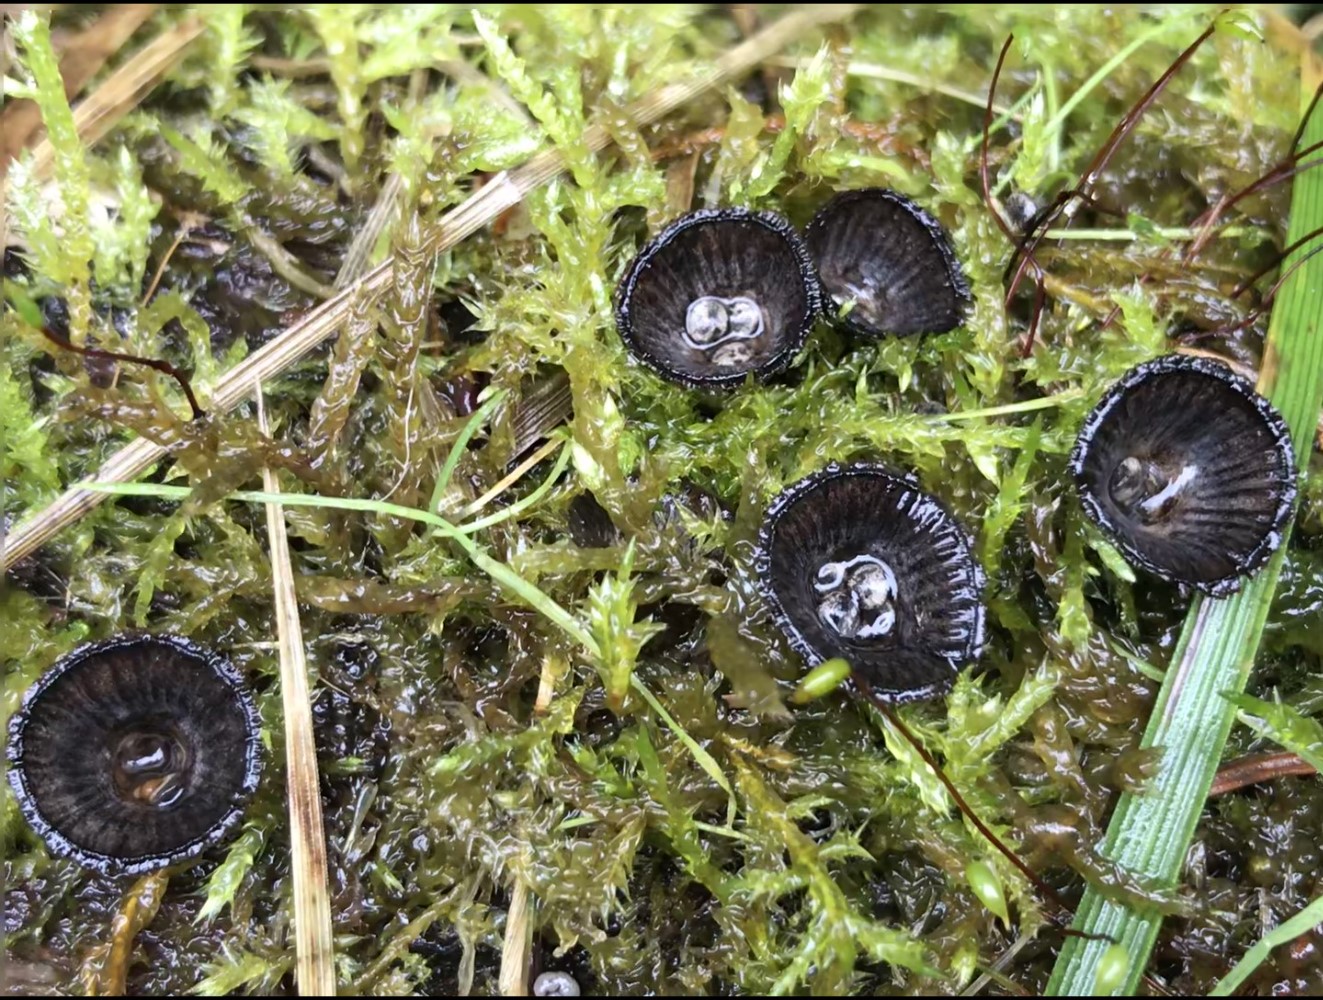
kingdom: Fungi
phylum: Basidiomycota
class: Agaricomycetes
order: Agaricales
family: Agaricaceae
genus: Cyathus
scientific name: Cyathus striatus
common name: stribet redesvamp
